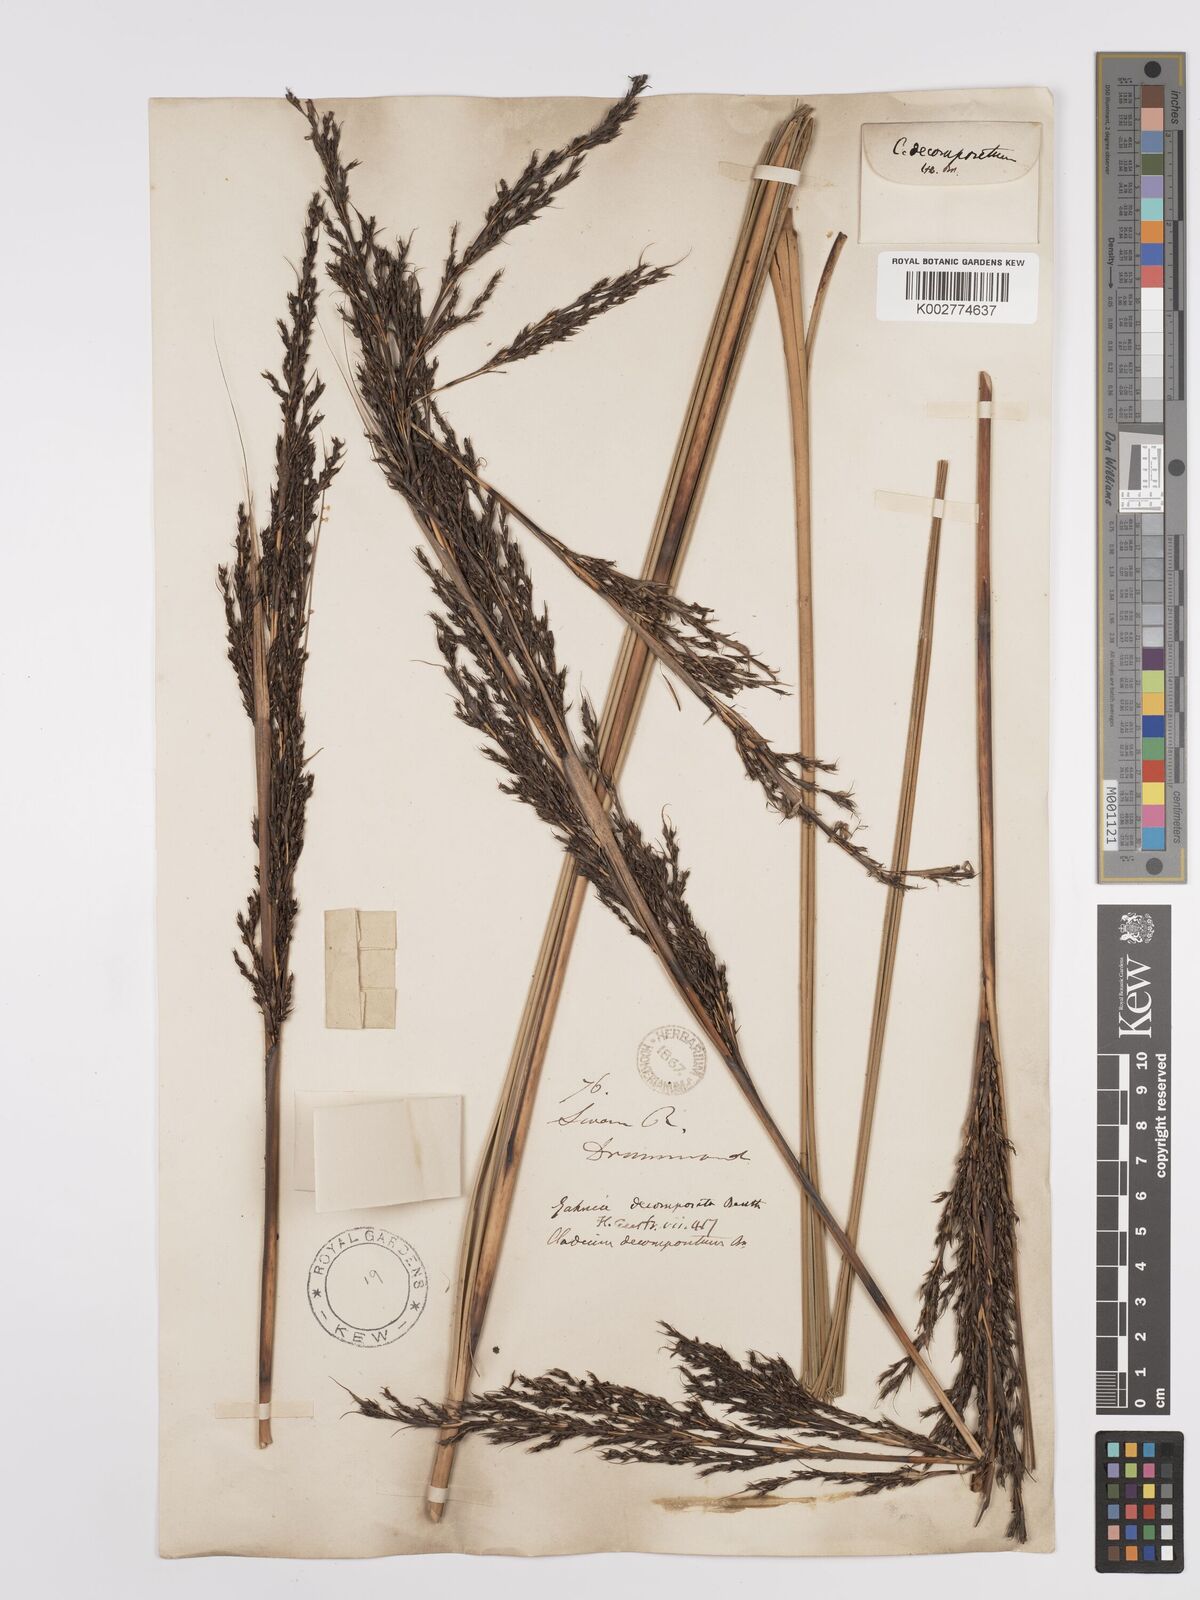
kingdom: Plantae
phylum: Tracheophyta
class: Liliopsida
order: Poales
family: Cyperaceae
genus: Gahnia
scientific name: Gahnia decomposita
